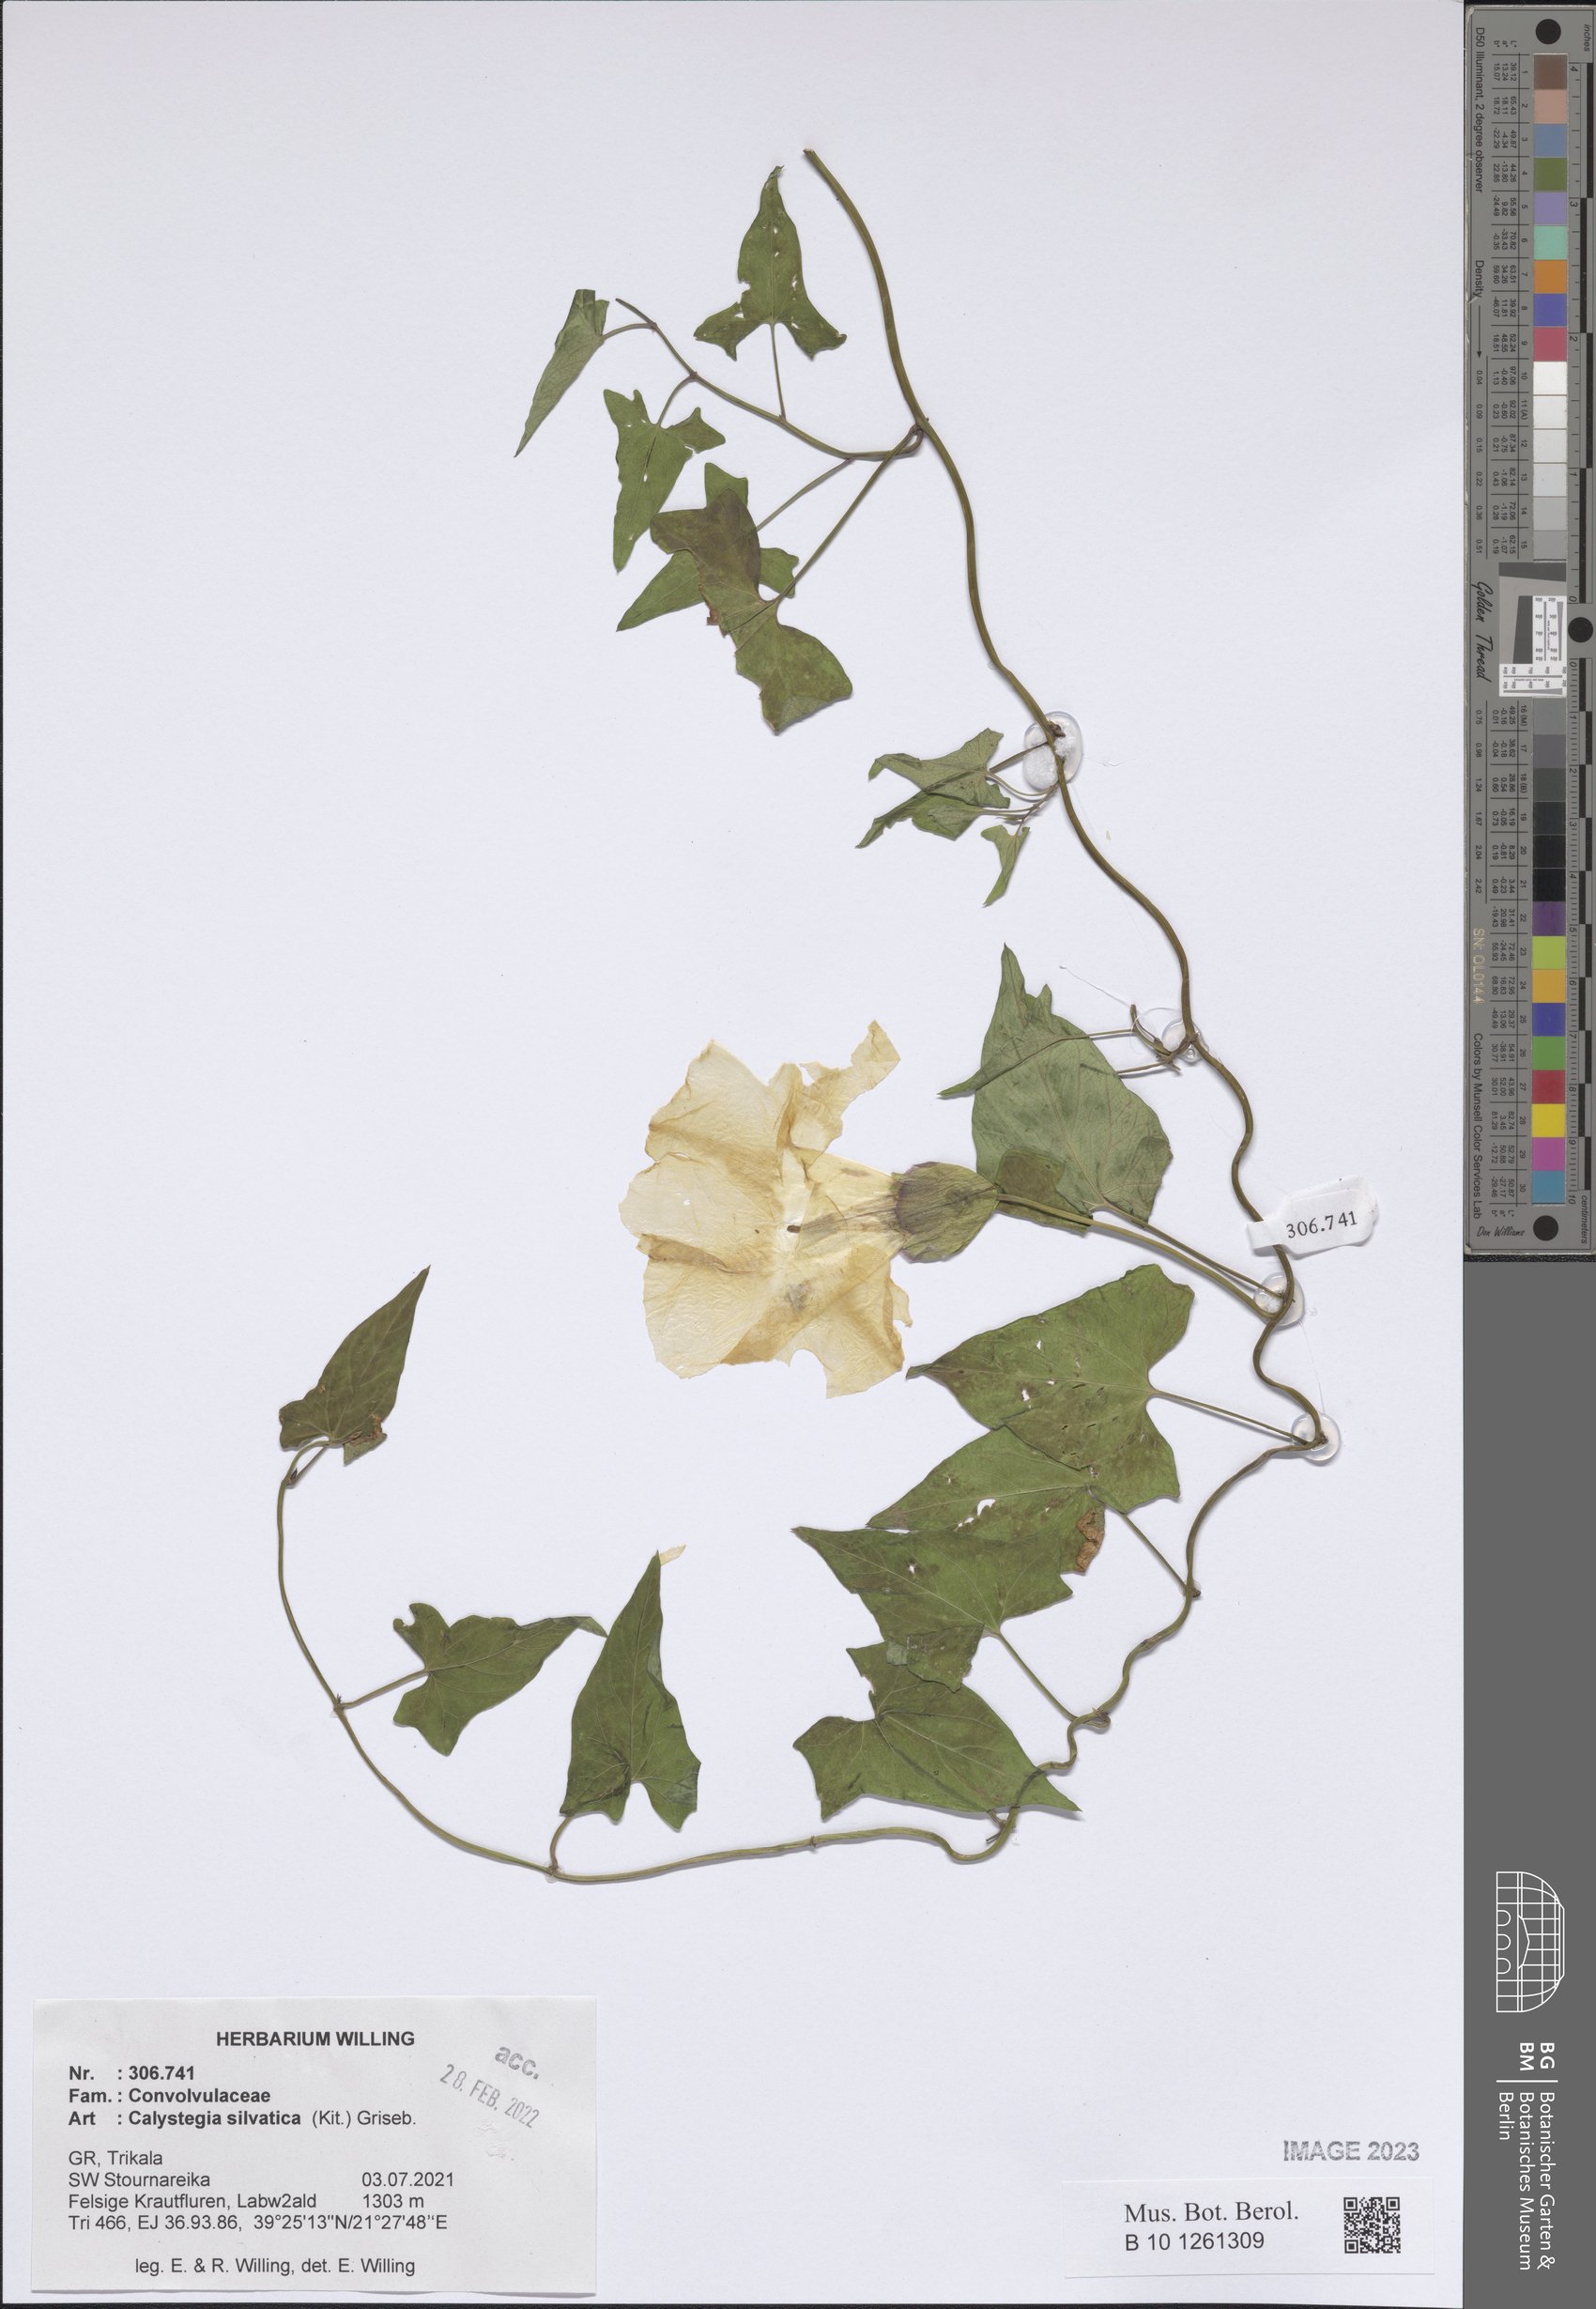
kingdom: Plantae
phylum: Tracheophyta
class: Magnoliopsida
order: Solanales
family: Convolvulaceae
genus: Calystegia
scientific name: Calystegia silvatica
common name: Large bindweed
